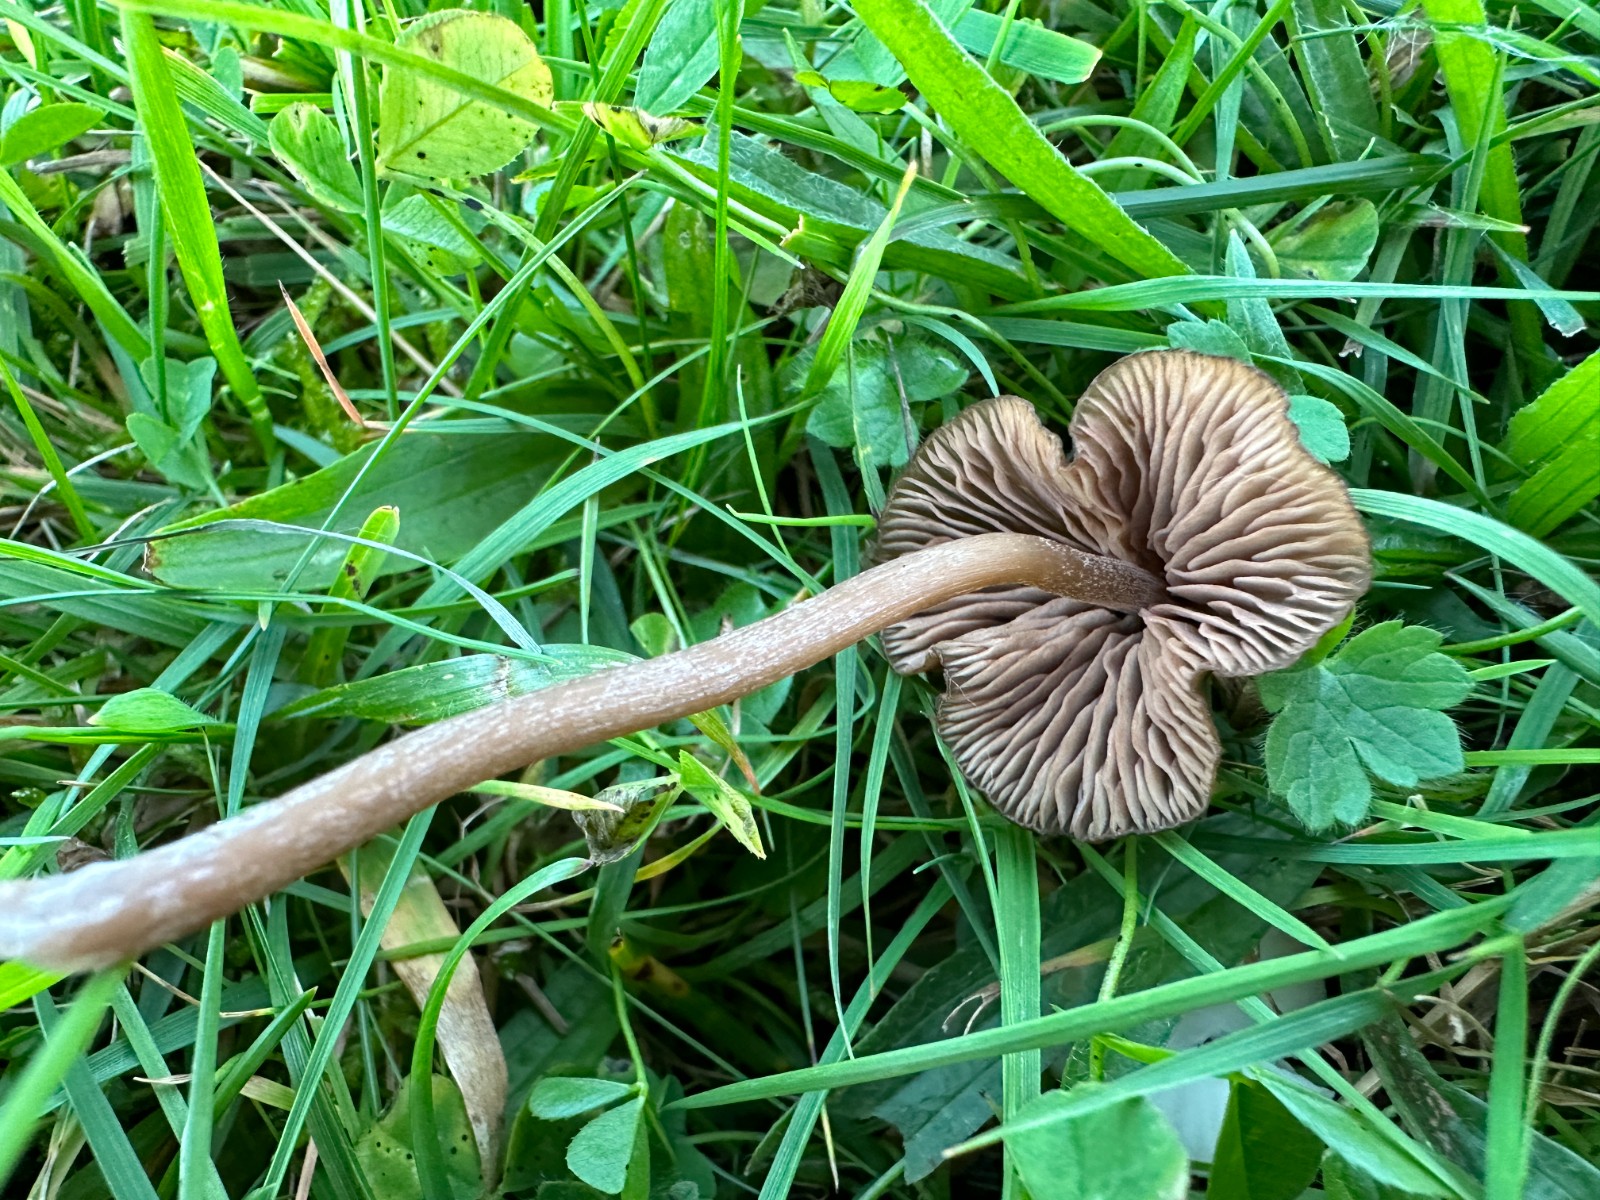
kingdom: Fungi
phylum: Basidiomycota
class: Agaricomycetes
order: Agaricales
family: Entolomataceae
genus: Entoloma
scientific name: Entoloma clandestinum
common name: tykbladet rødblad
